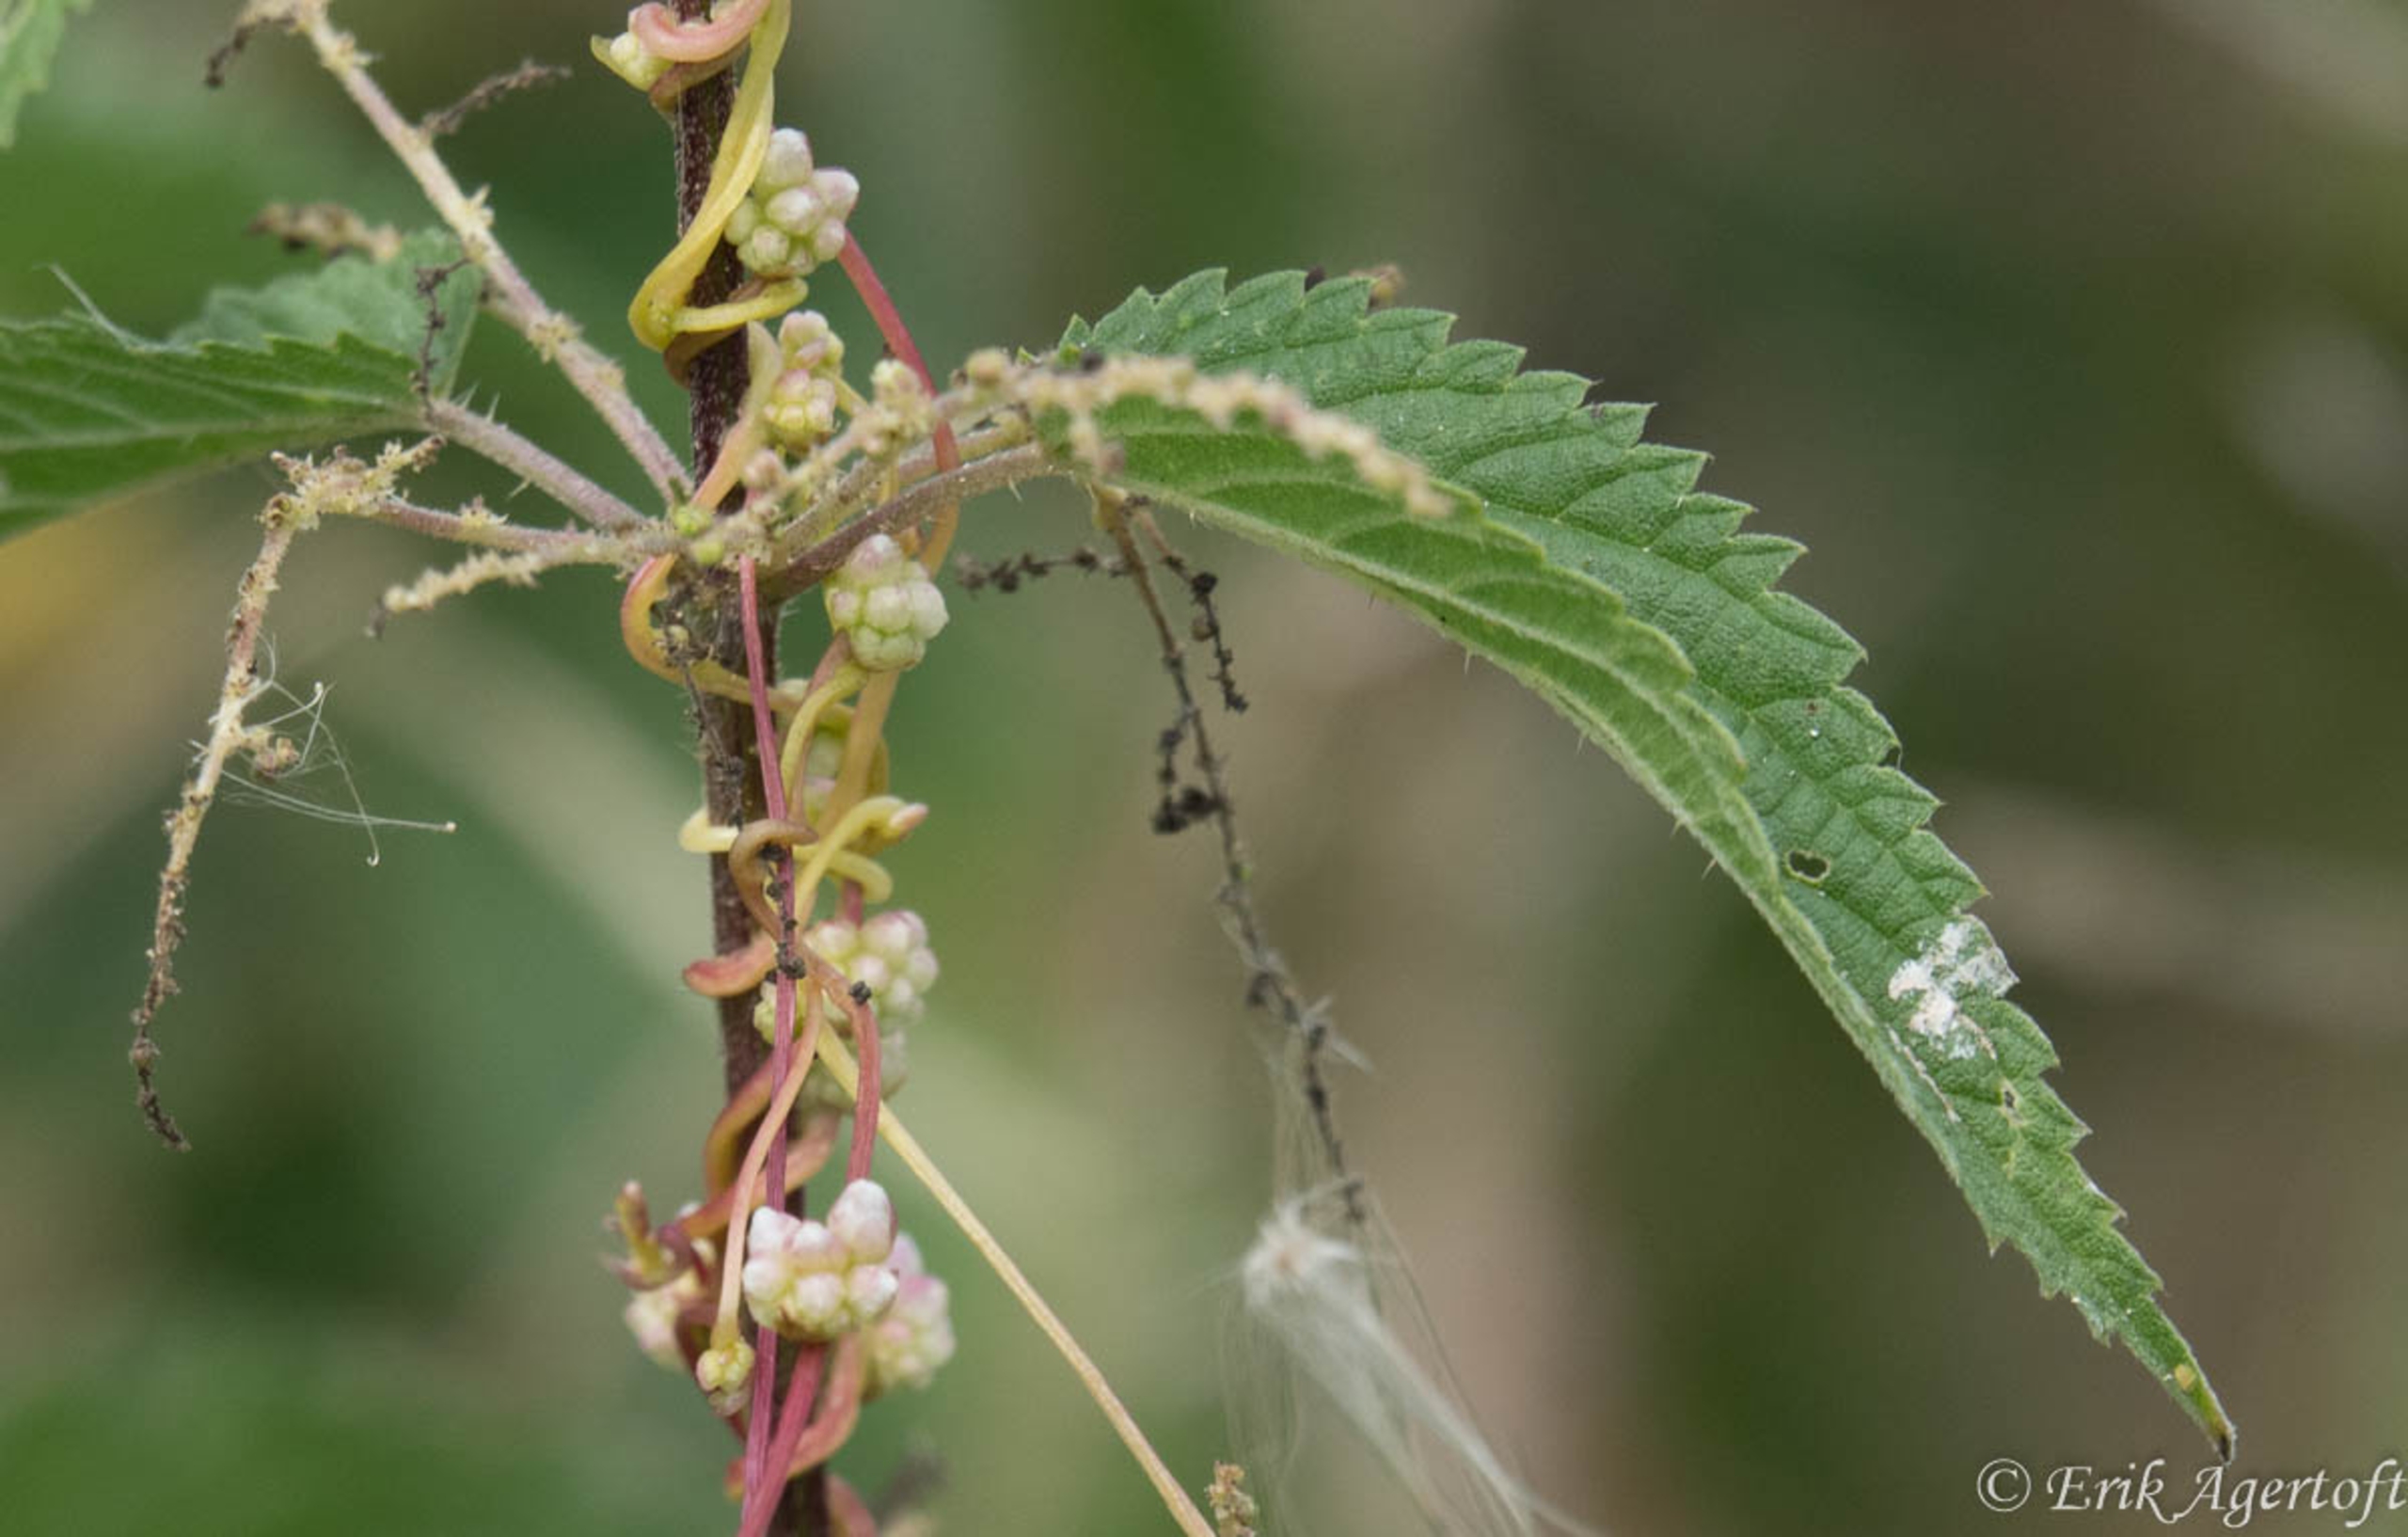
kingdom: Plantae
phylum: Tracheophyta
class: Magnoliopsida
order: Solanales
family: Convolvulaceae
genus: Cuscuta
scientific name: Cuscuta europaea
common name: Nælde-silke
